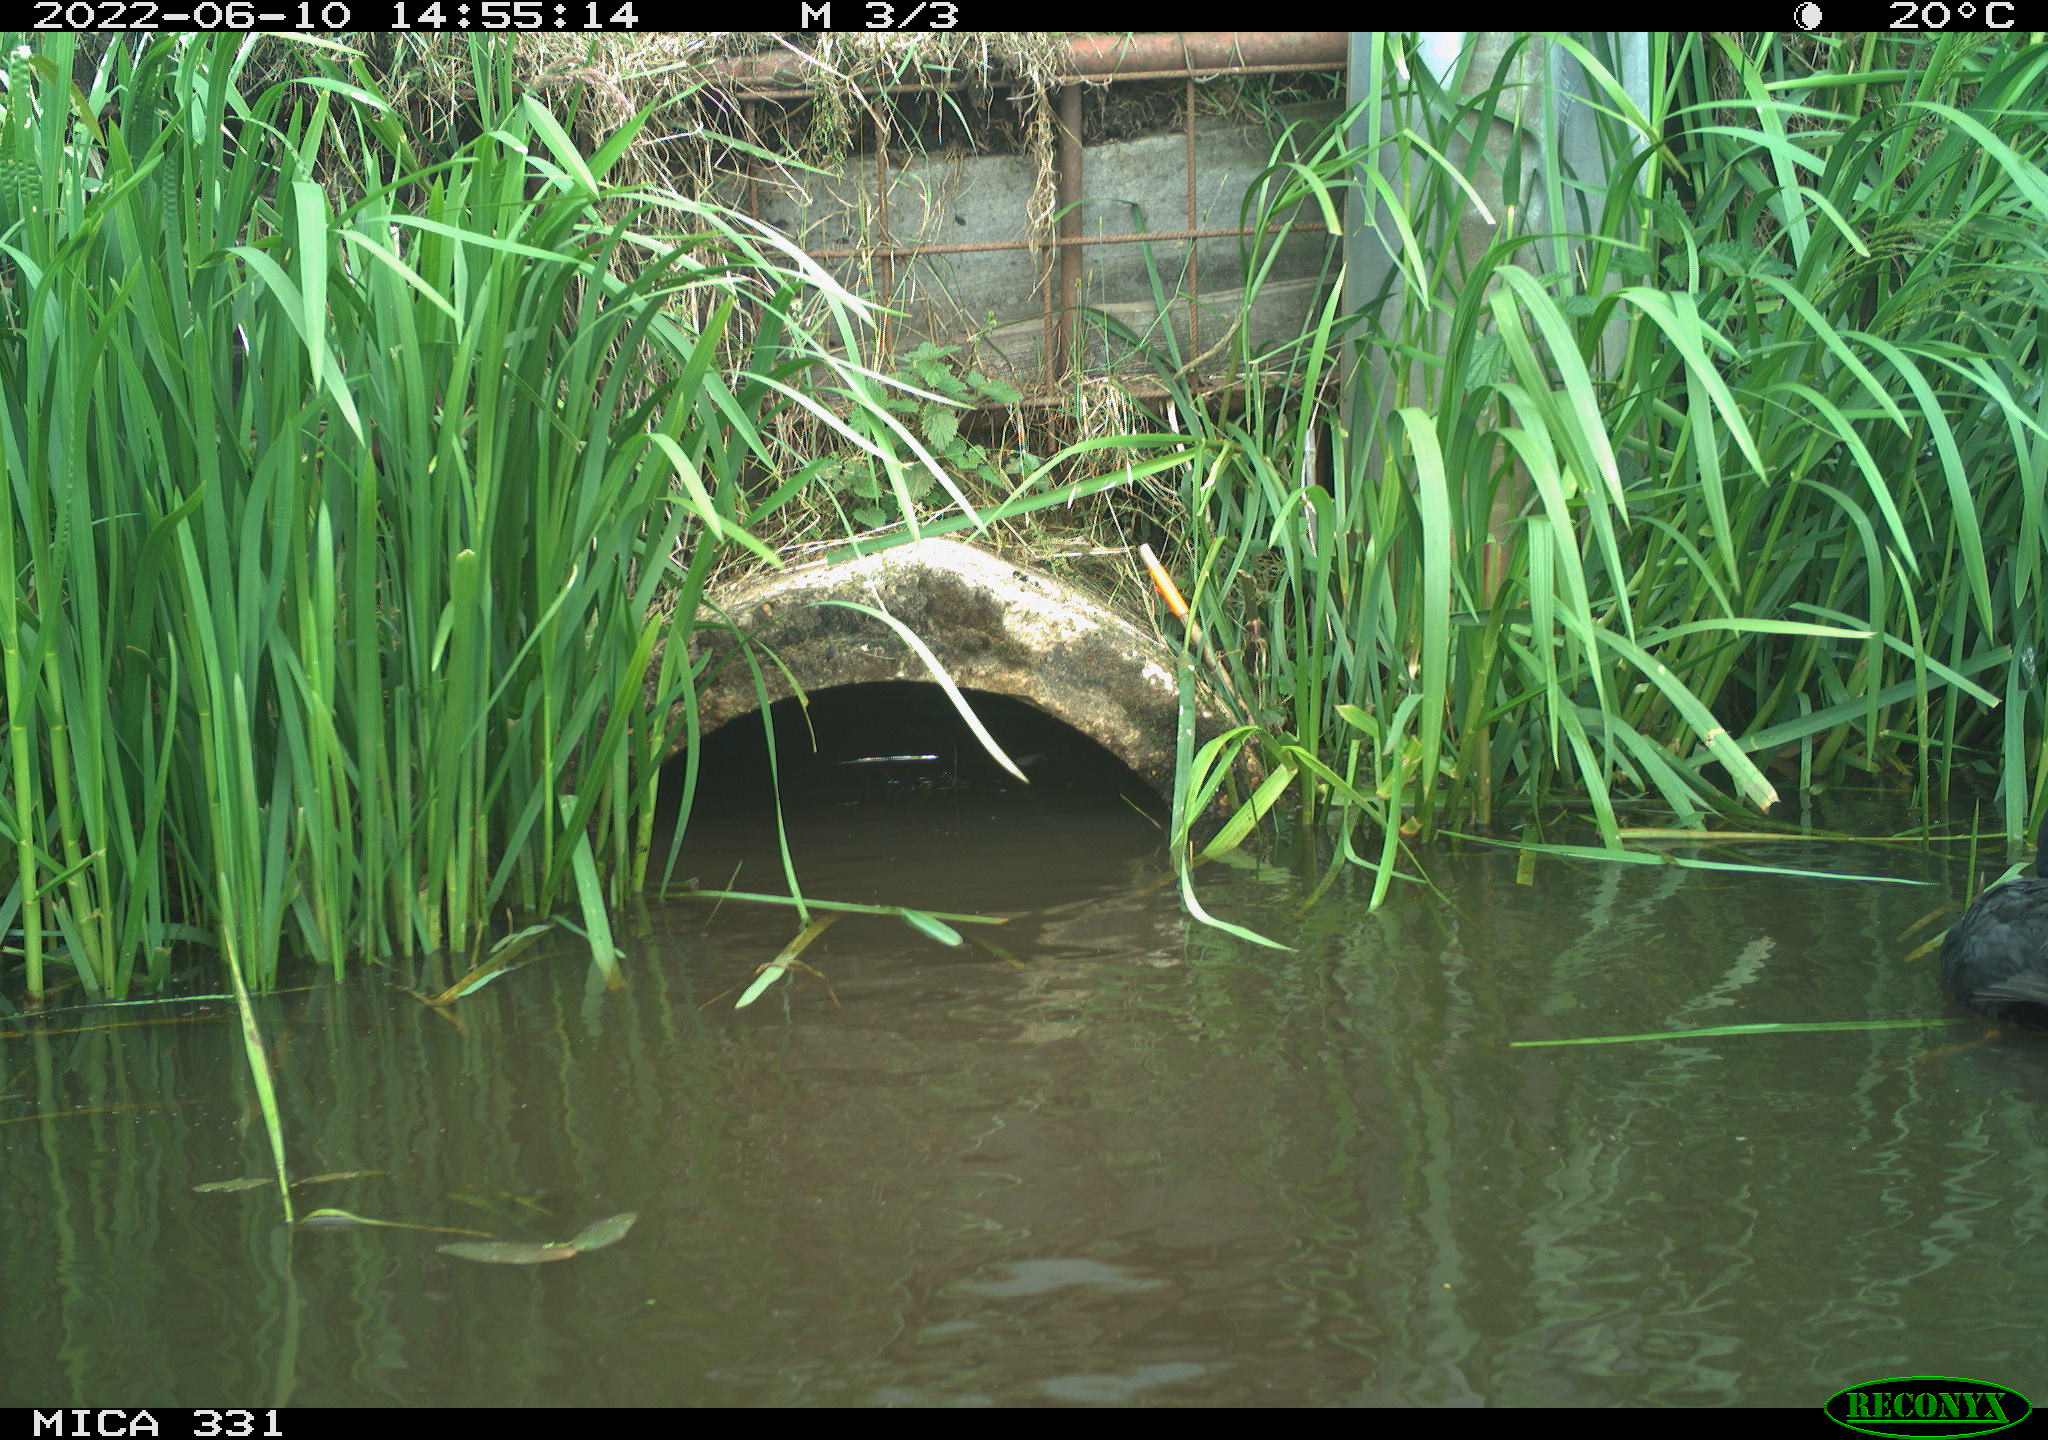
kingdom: Animalia
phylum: Chordata
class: Aves
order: Gruiformes
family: Rallidae
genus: Fulica
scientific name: Fulica atra
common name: Eurasian coot
